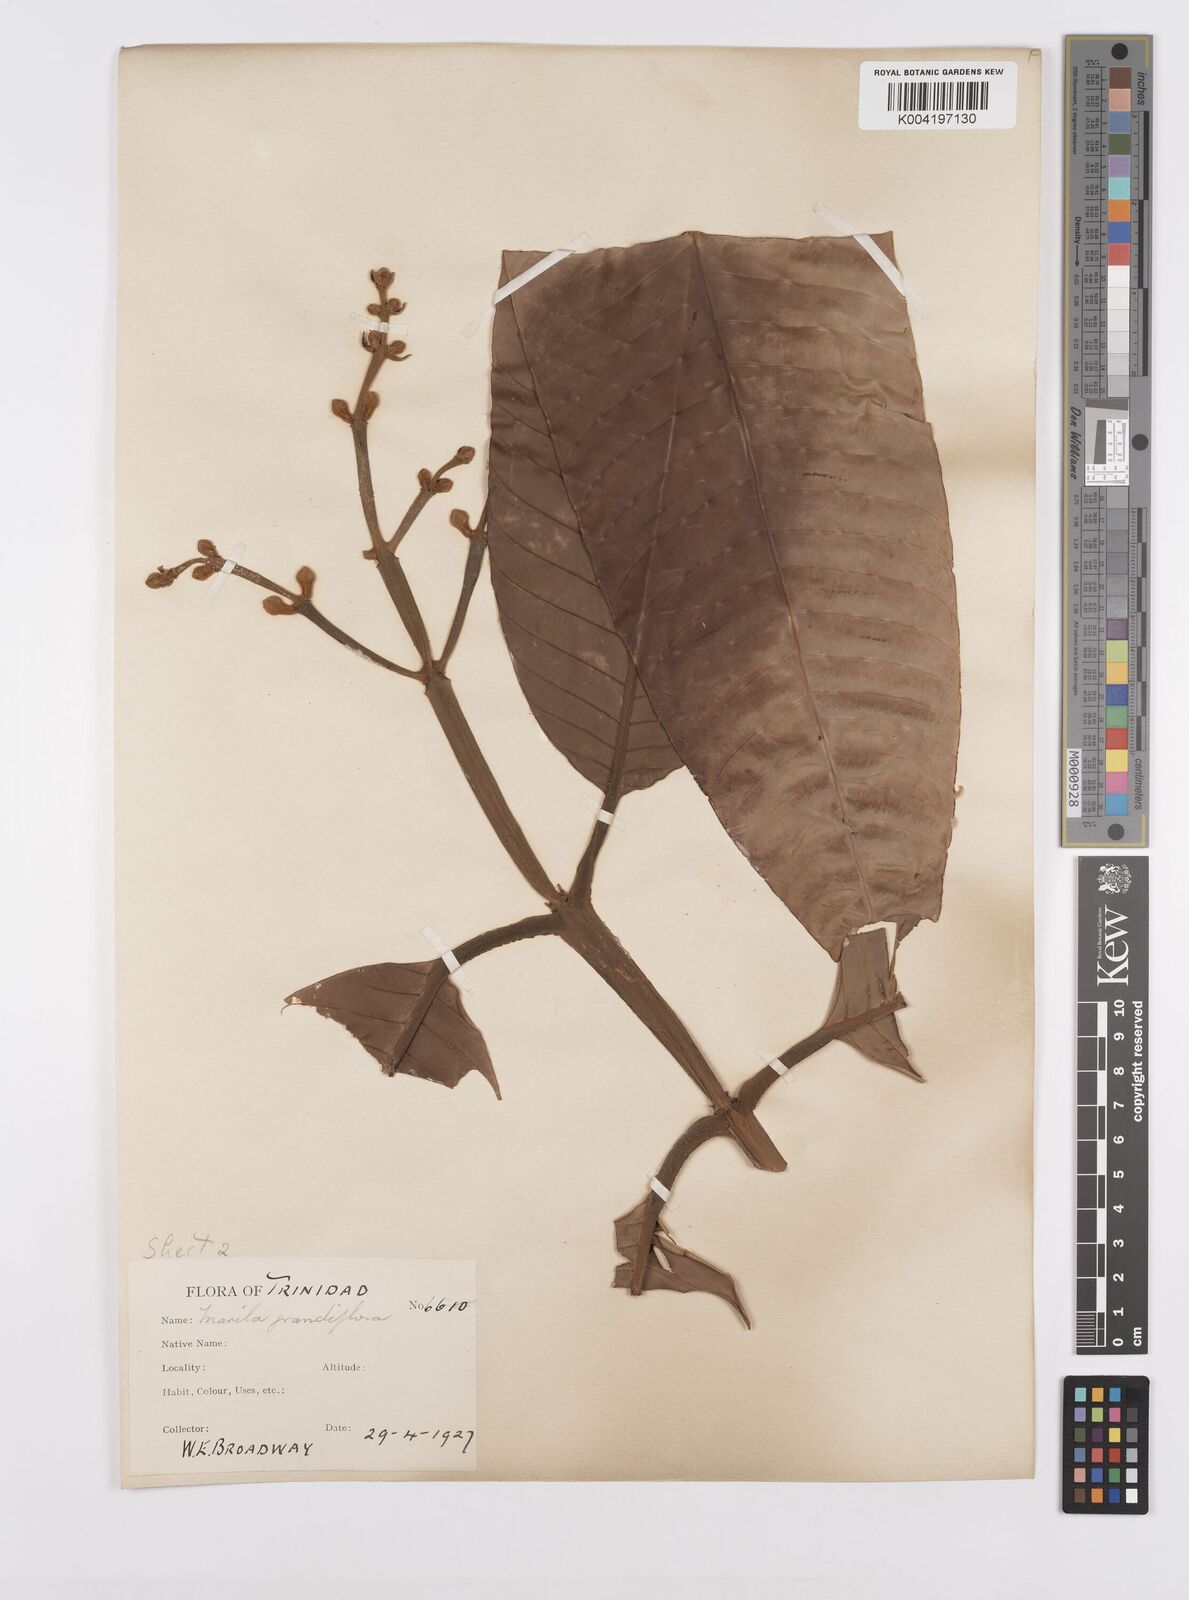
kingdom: Plantae
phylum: Tracheophyta
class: Magnoliopsida
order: Malpighiales
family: Calophyllaceae
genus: Marila
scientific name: Marila grandiflora
